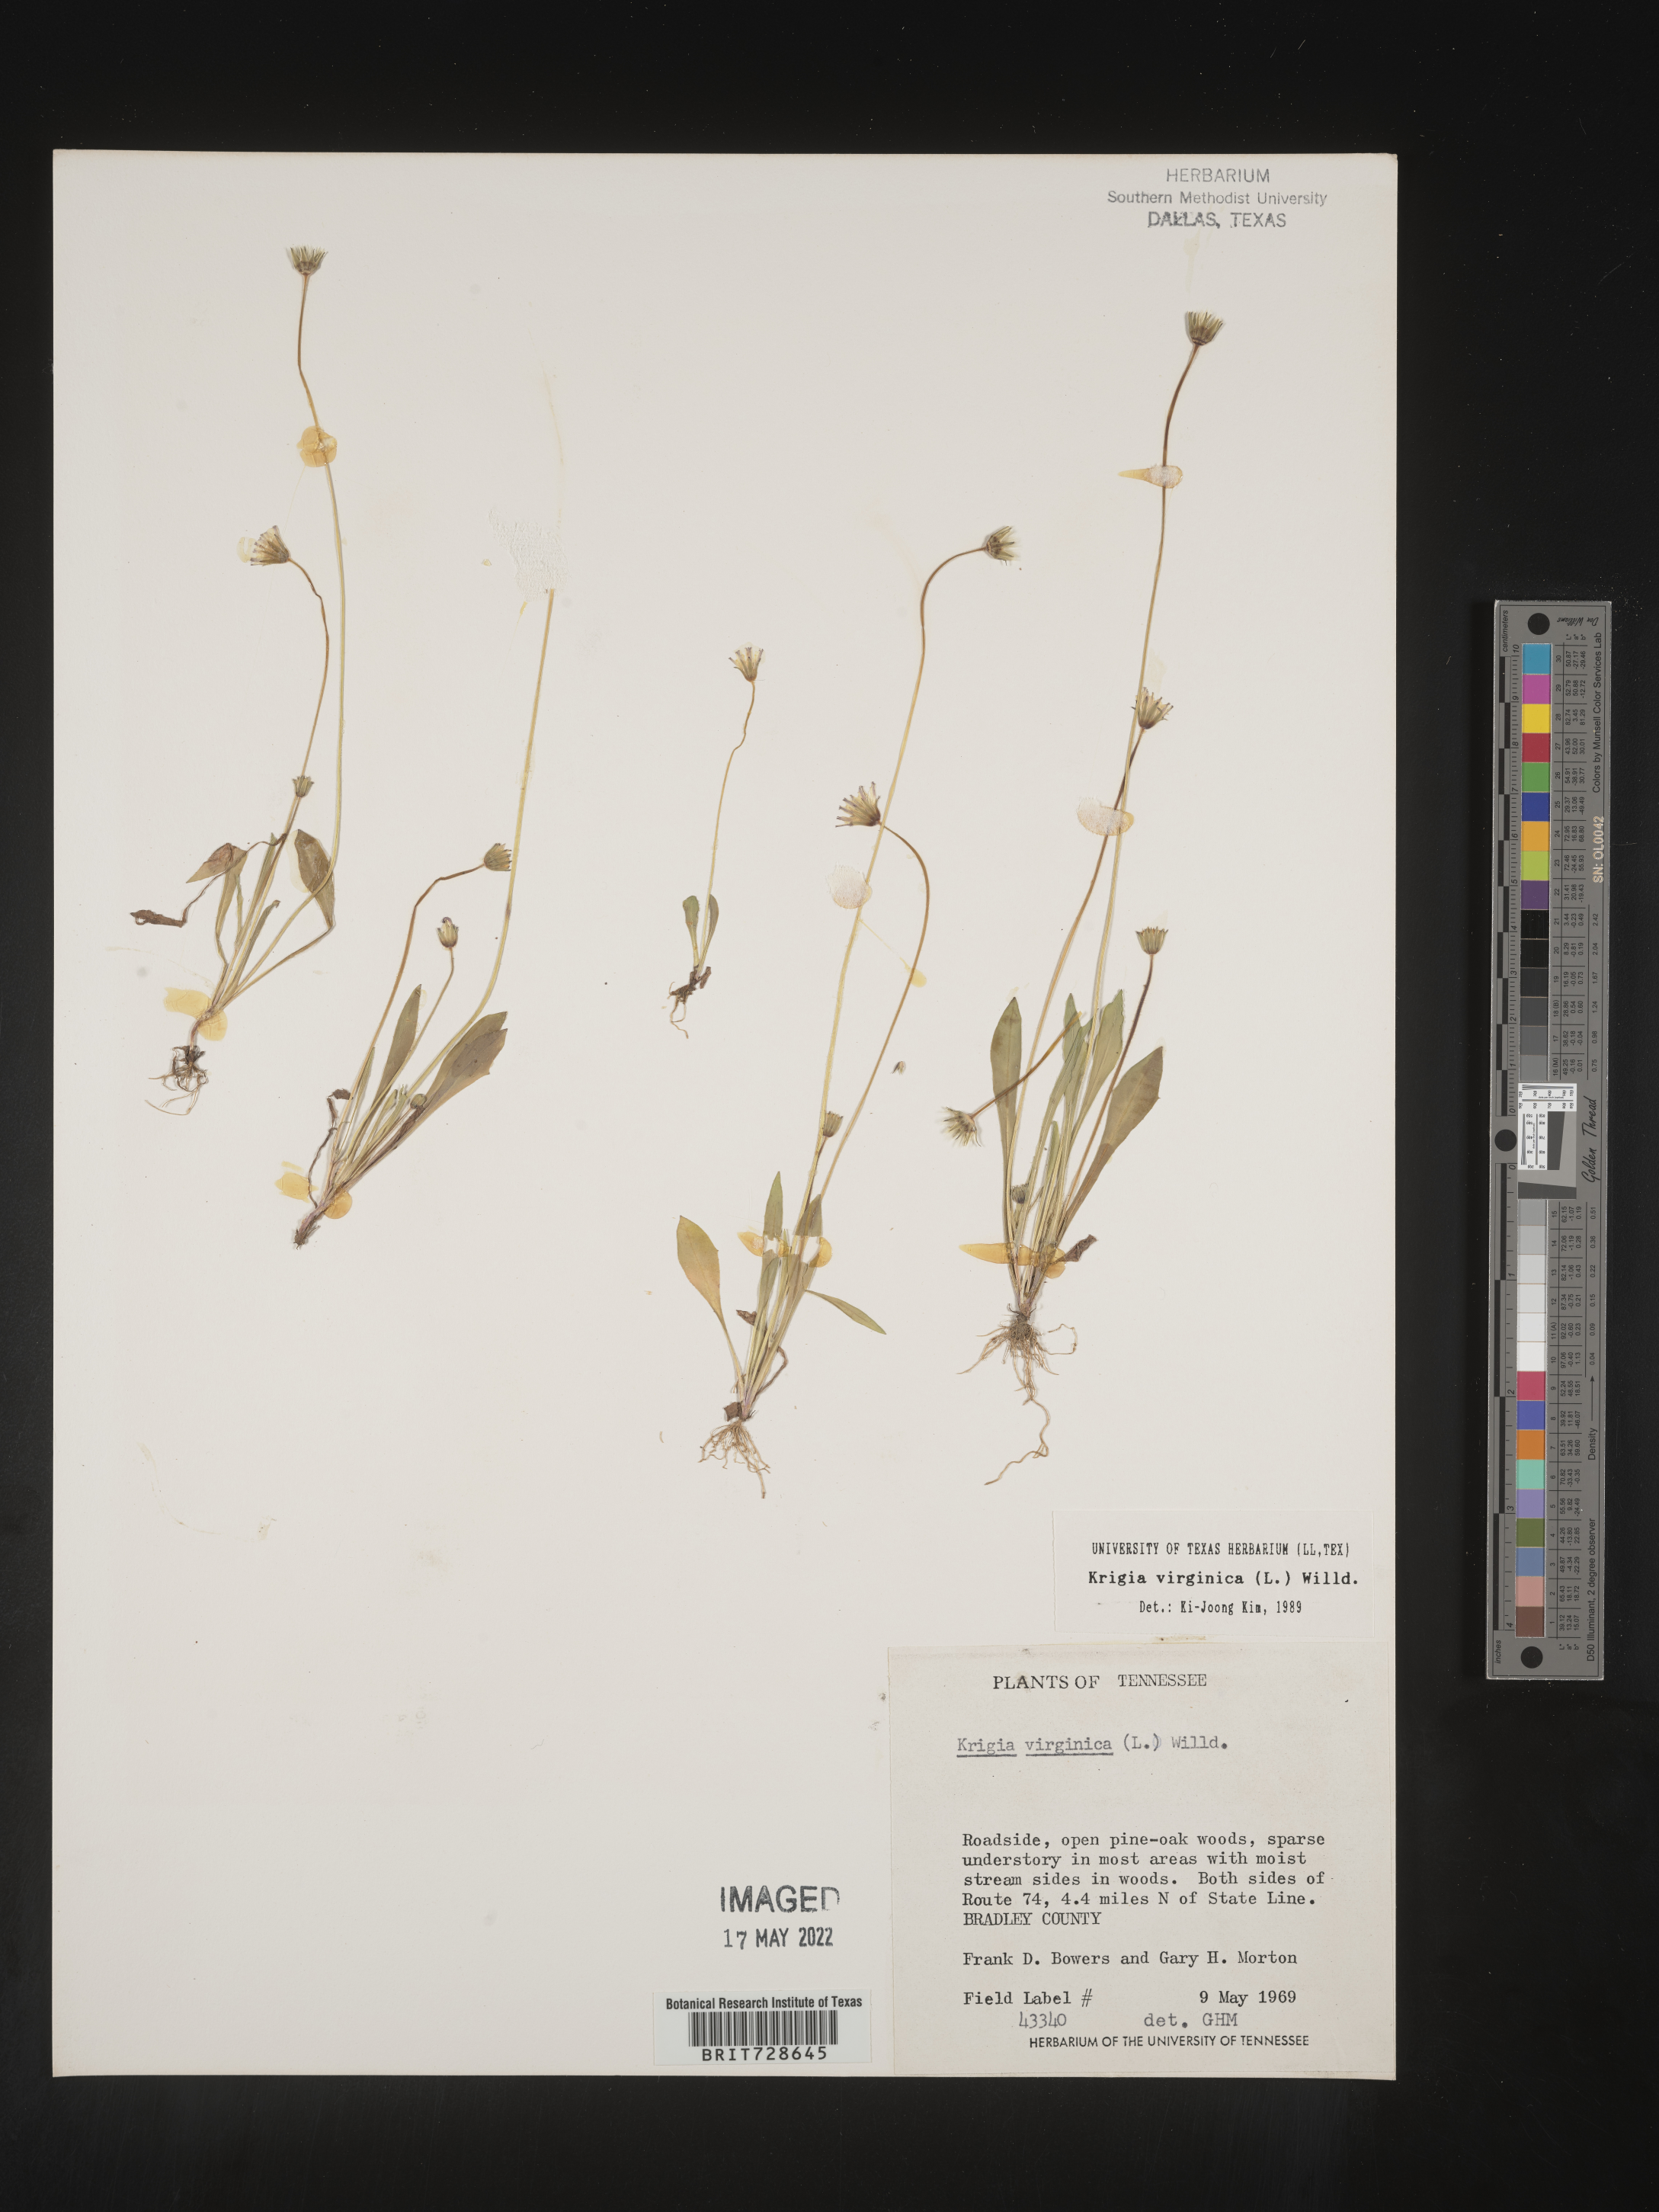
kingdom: Plantae
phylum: Tracheophyta
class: Magnoliopsida
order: Asterales
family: Asteraceae
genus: Krigia
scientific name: Krigia virginica
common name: Virginia dwarf-dandelion
